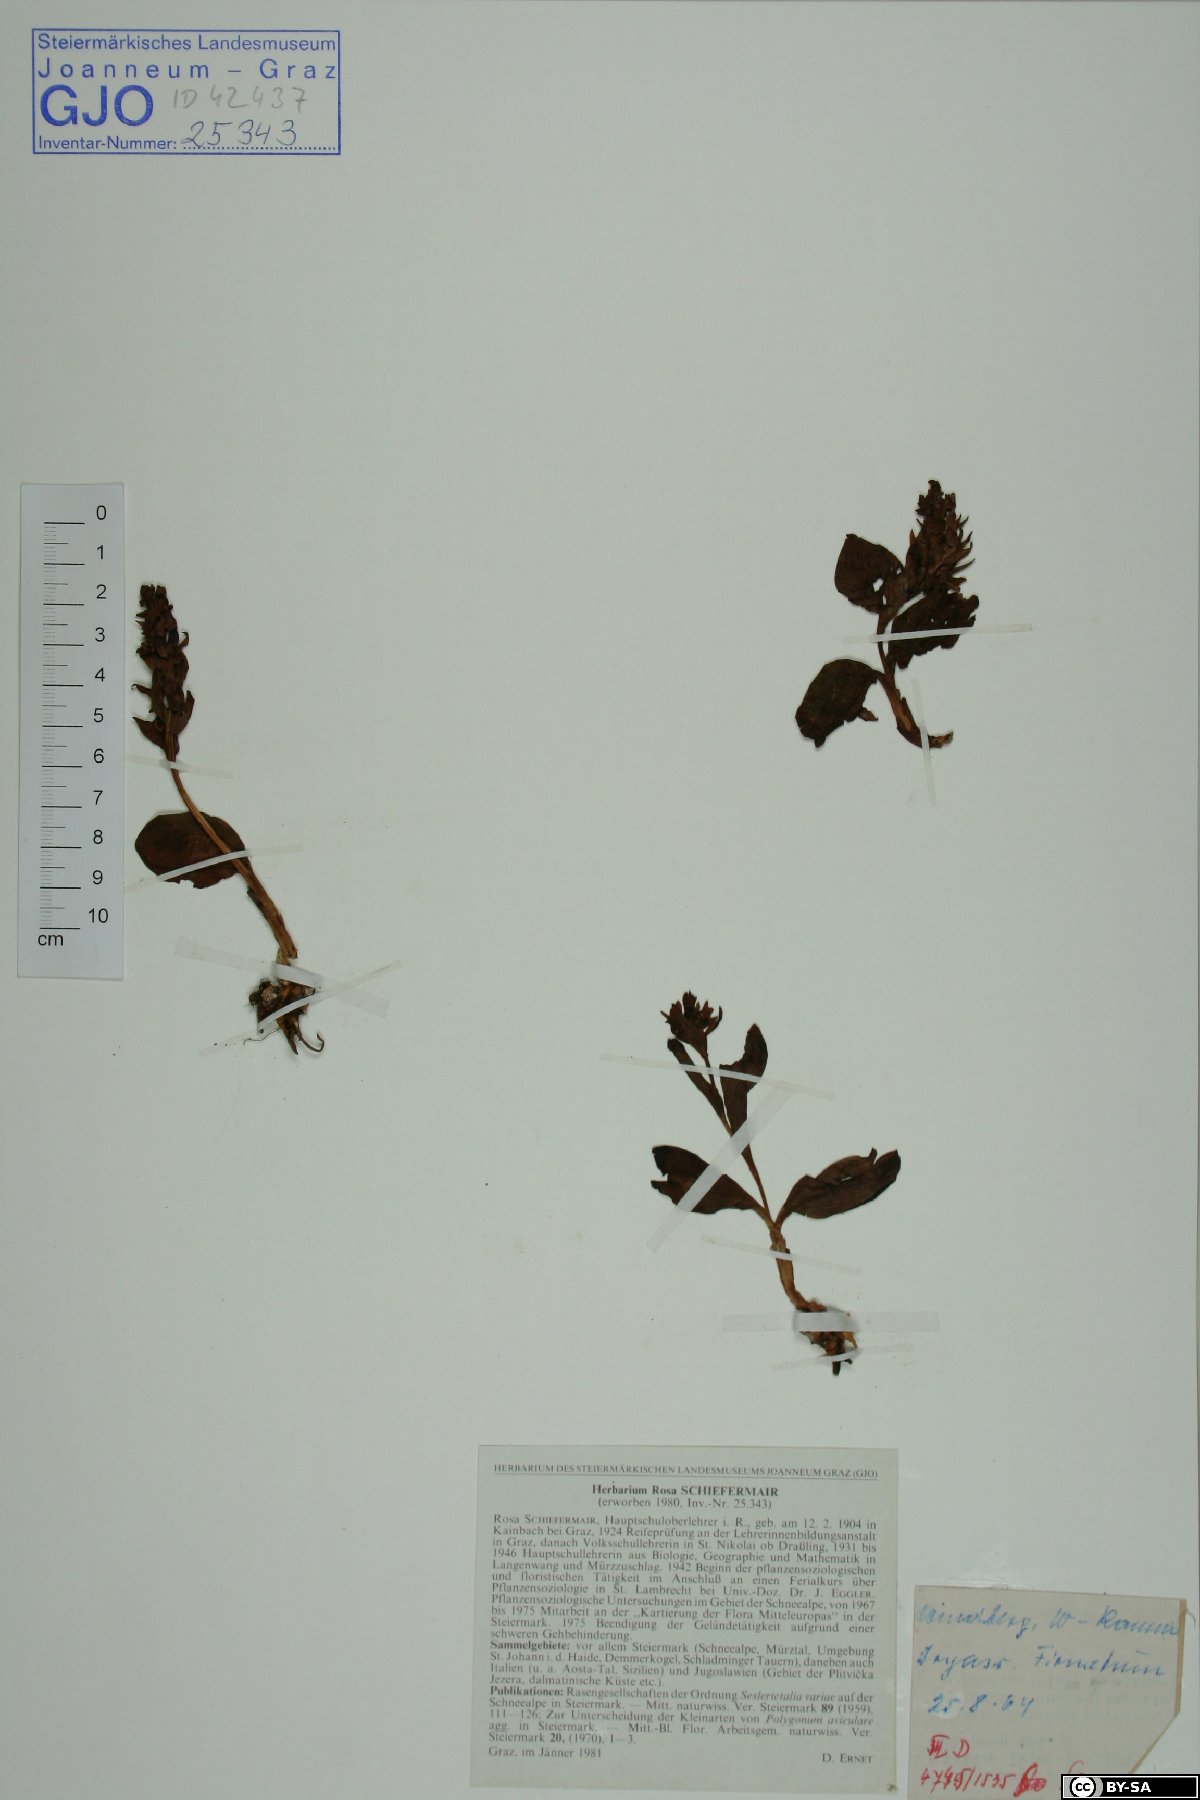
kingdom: Plantae
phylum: Tracheophyta
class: Liliopsida
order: Asparagales
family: Orchidaceae
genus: Dactylorhiza
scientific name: Dactylorhiza viridis
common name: Longbract frog orchid
